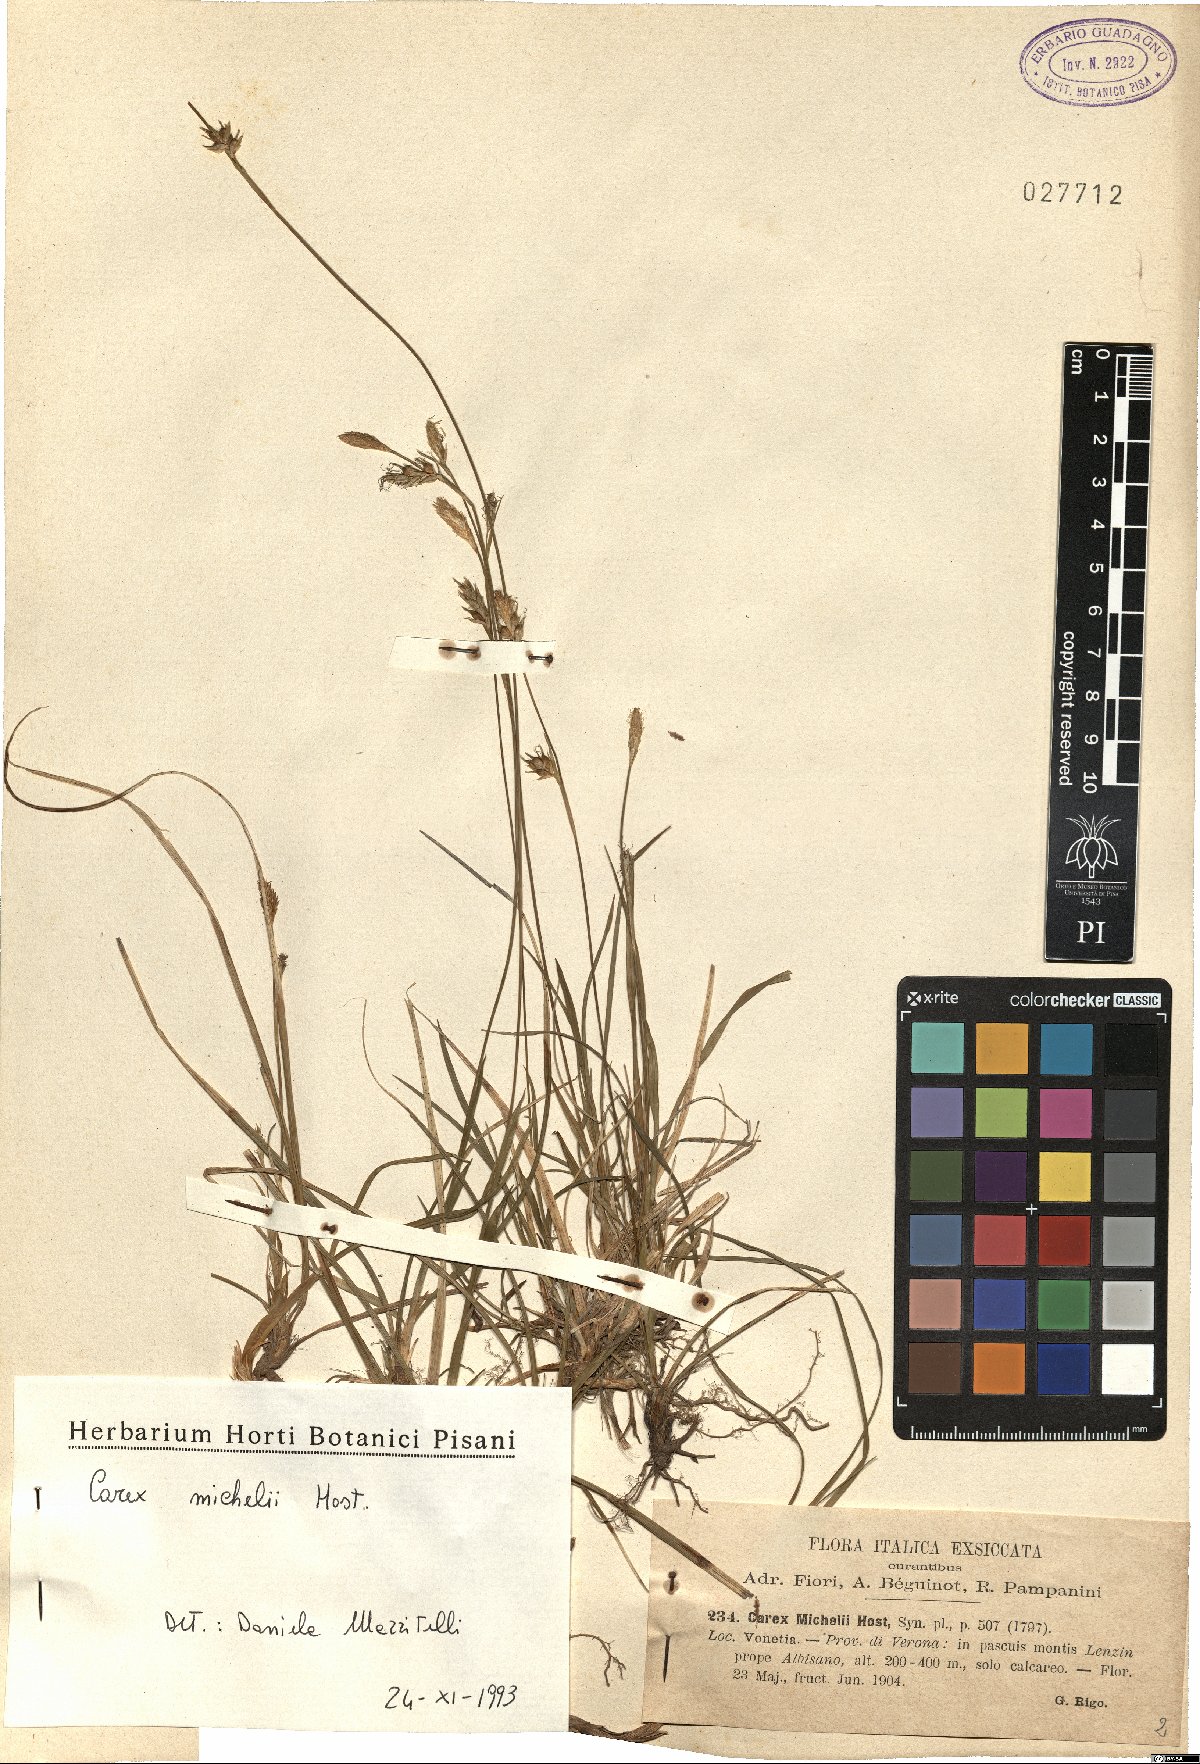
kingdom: Plantae
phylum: Tracheophyta
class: Liliopsida
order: Poales
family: Cyperaceae
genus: Carex
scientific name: Carex michelii
